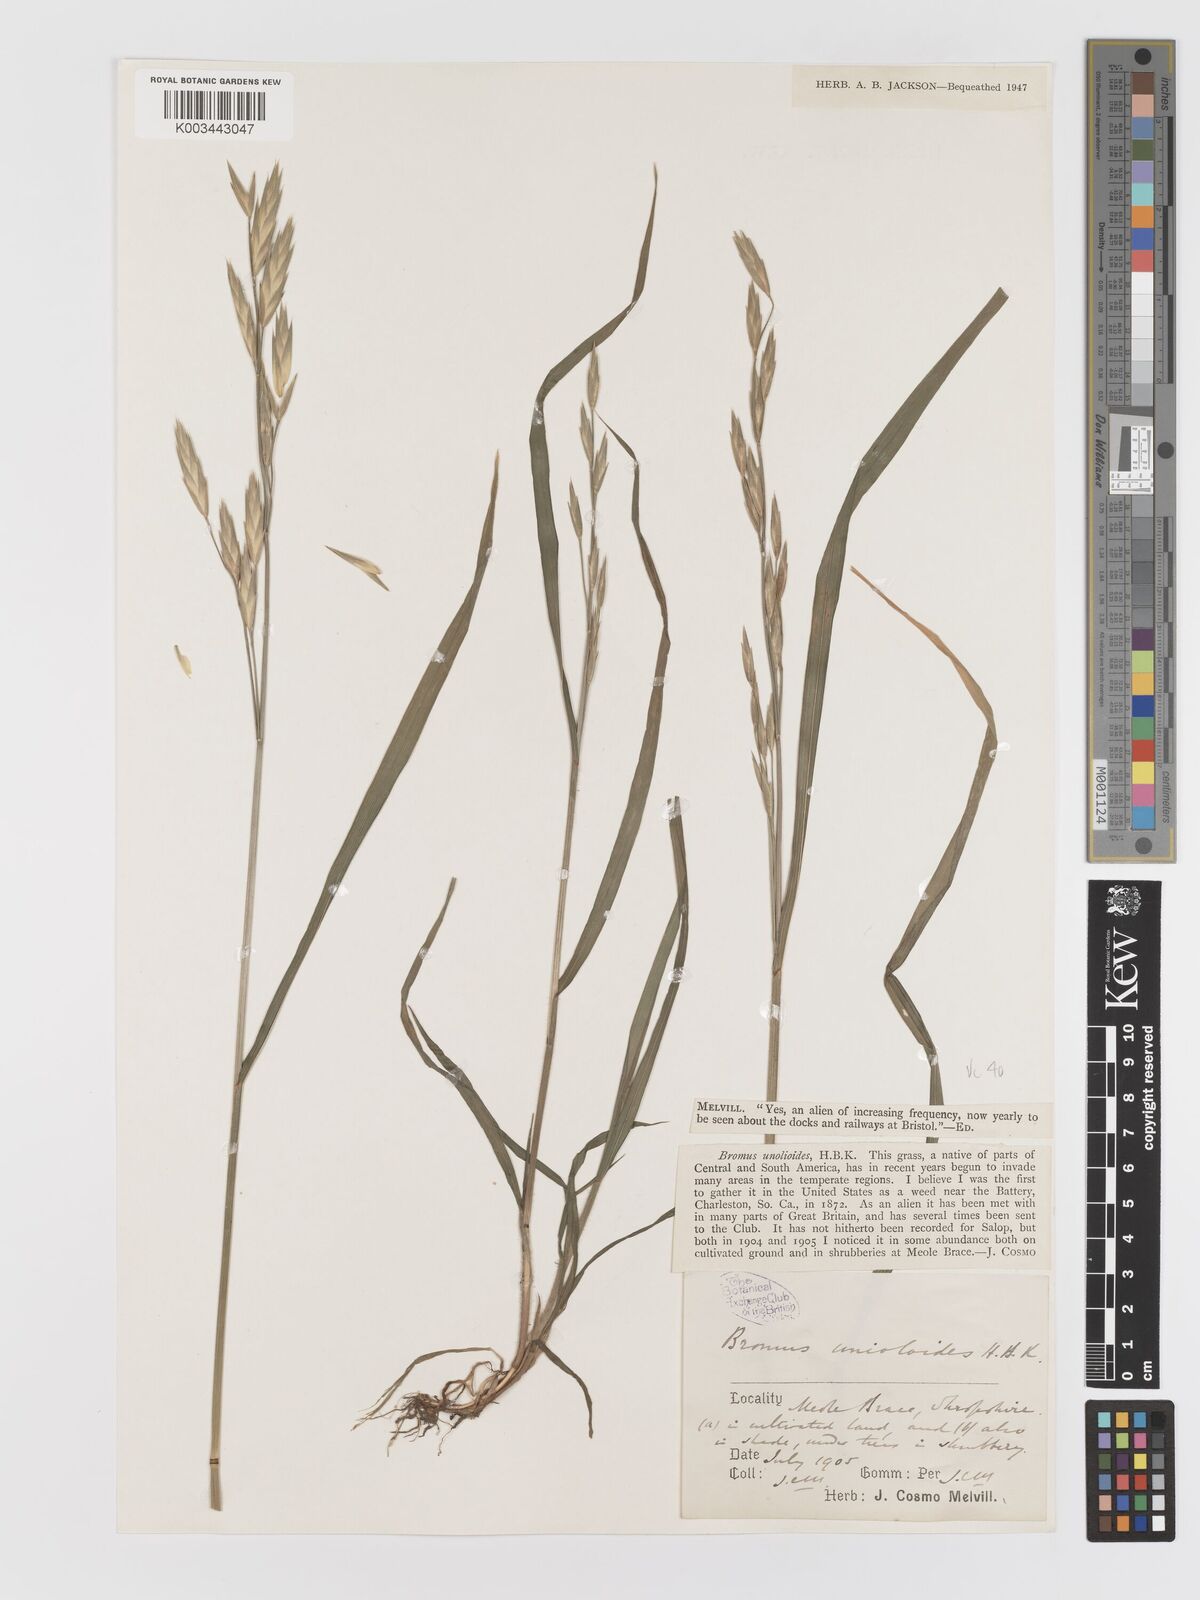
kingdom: Plantae
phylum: Tracheophyta
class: Liliopsida
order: Poales
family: Poaceae
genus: Bromus
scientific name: Bromus catharticus
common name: Rescuegrass
